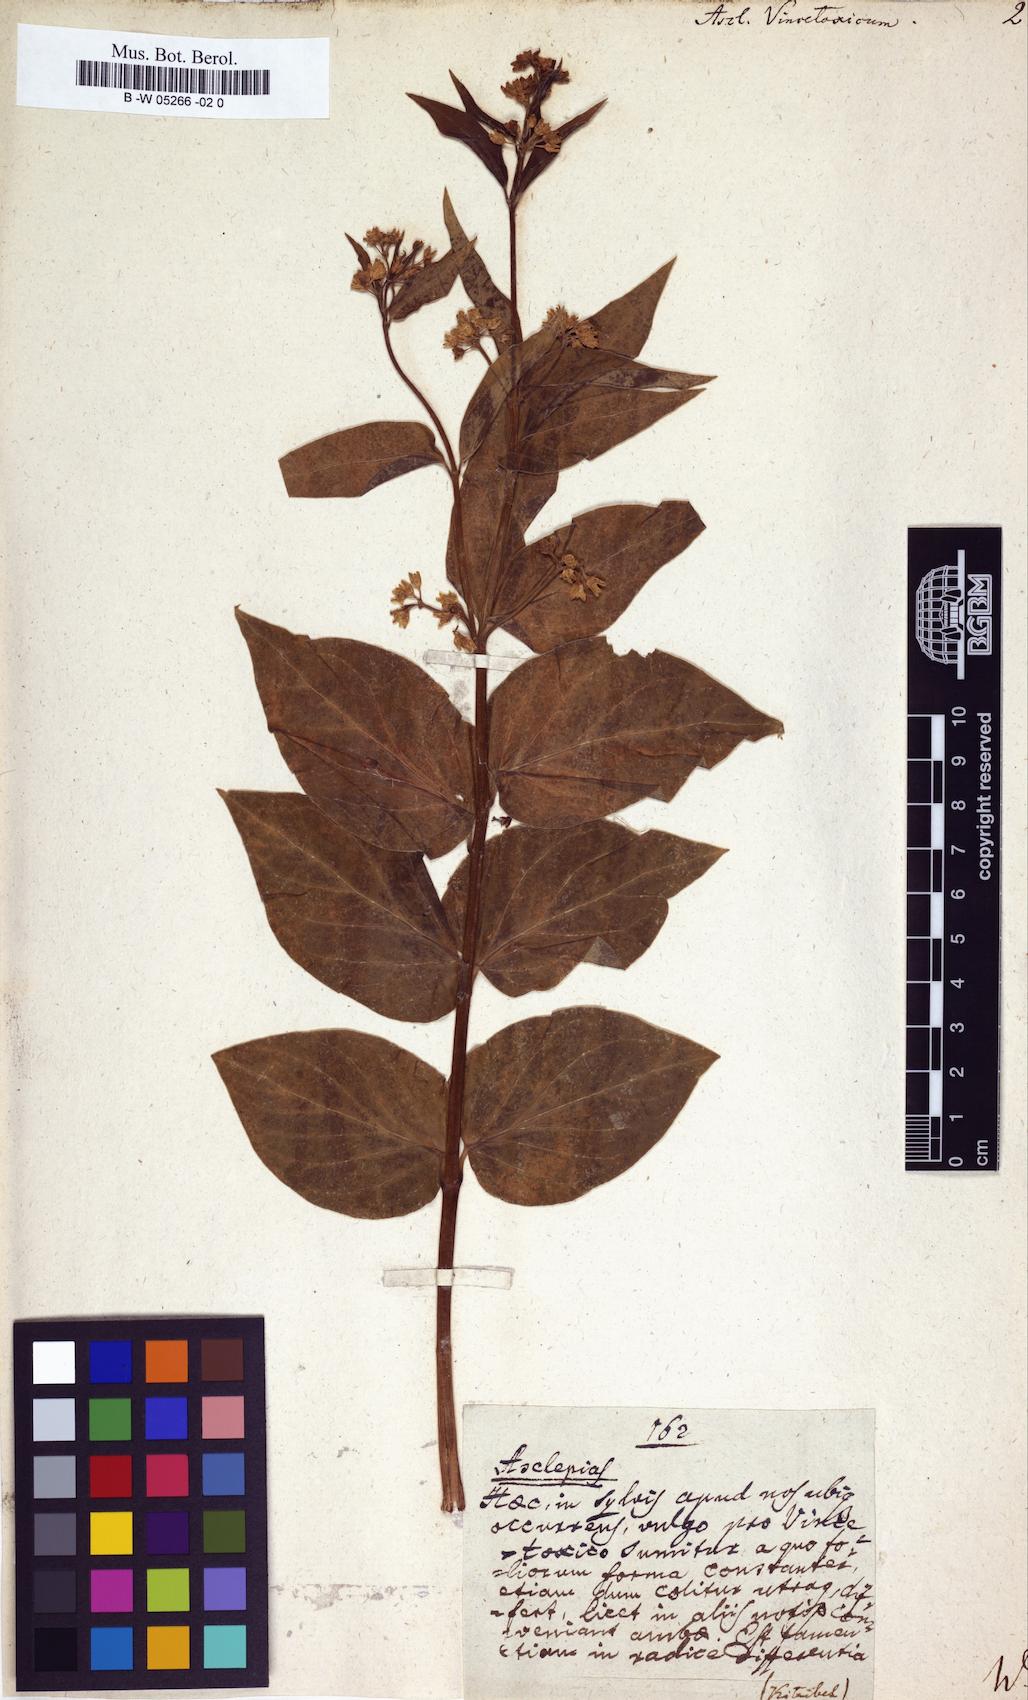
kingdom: Plantae
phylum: Tracheophyta
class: Magnoliopsida
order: Gentianales
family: Apocynaceae
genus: Vincetoxicum
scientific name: Vincetoxicum hirundinaria
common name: White swallowwort
